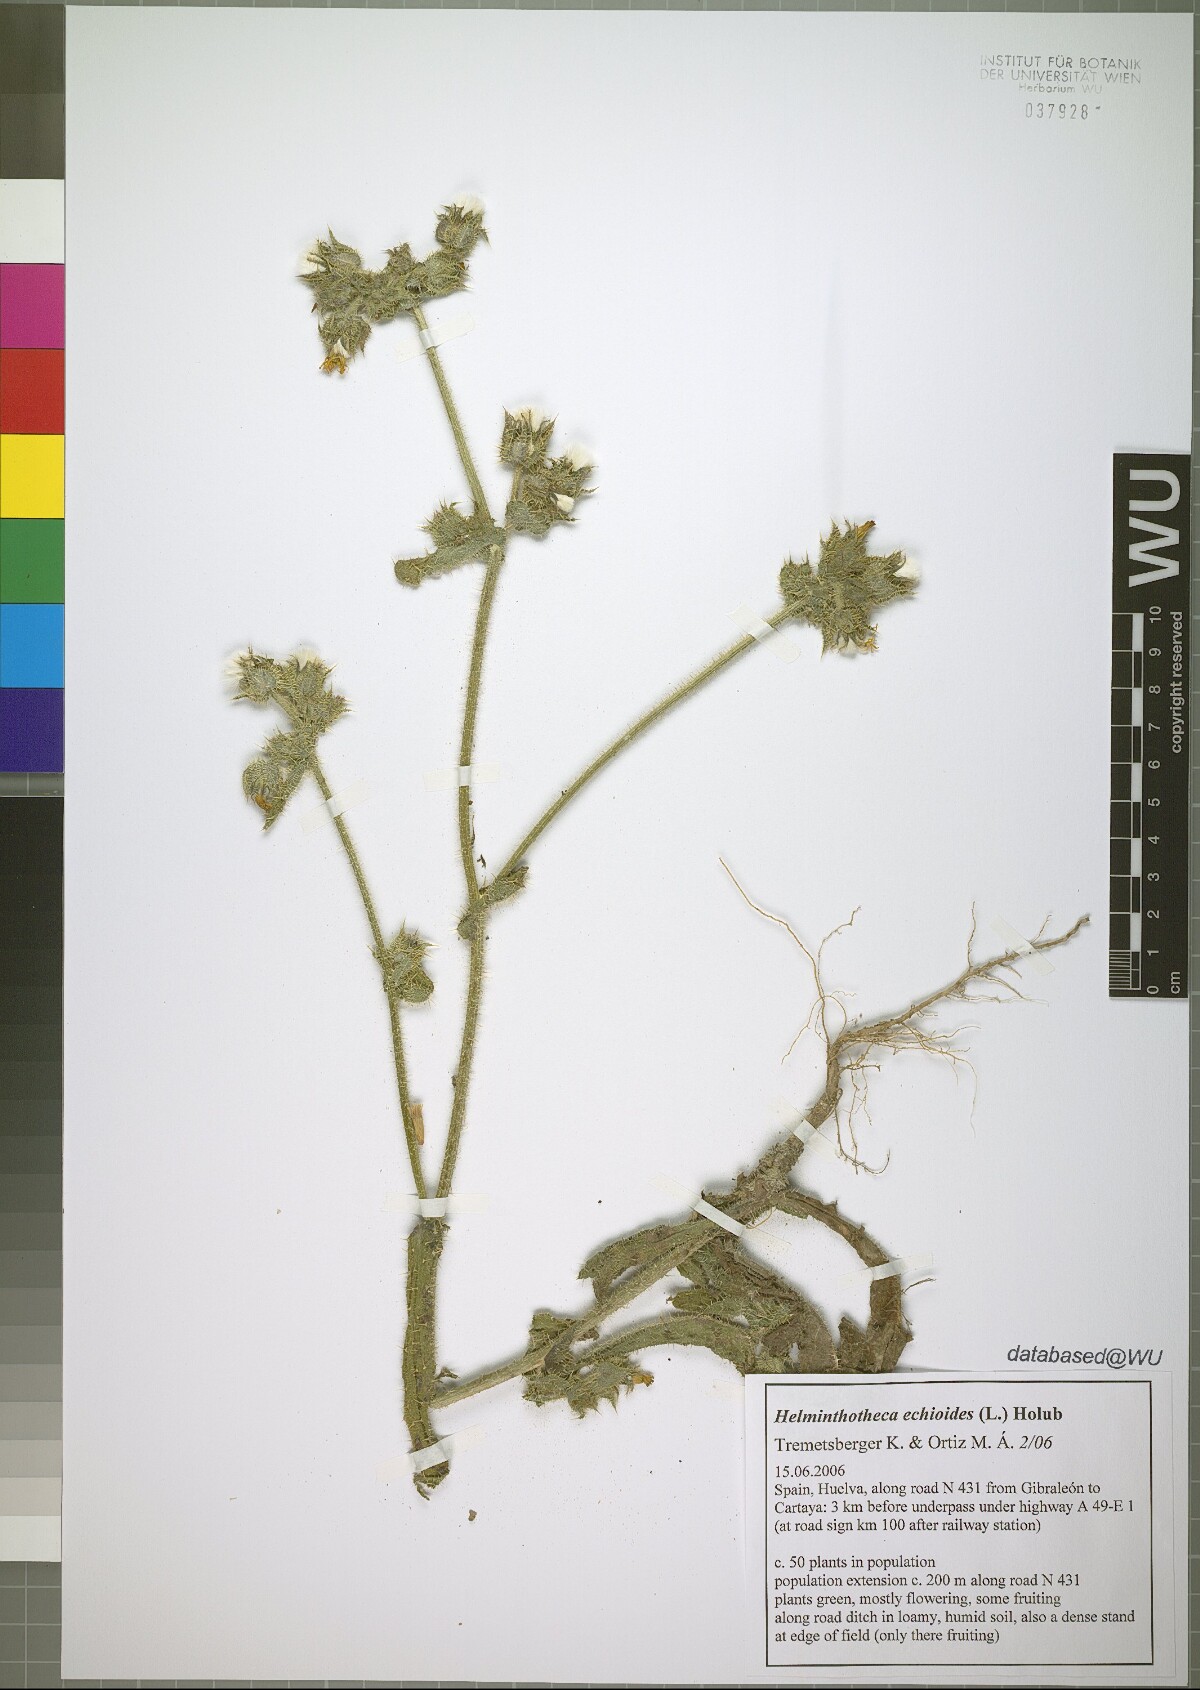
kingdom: Plantae
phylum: Tracheophyta
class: Magnoliopsida
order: Asterales
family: Asteraceae
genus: Helminthotheca
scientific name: Helminthotheca echioides
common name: Ox-tongue
